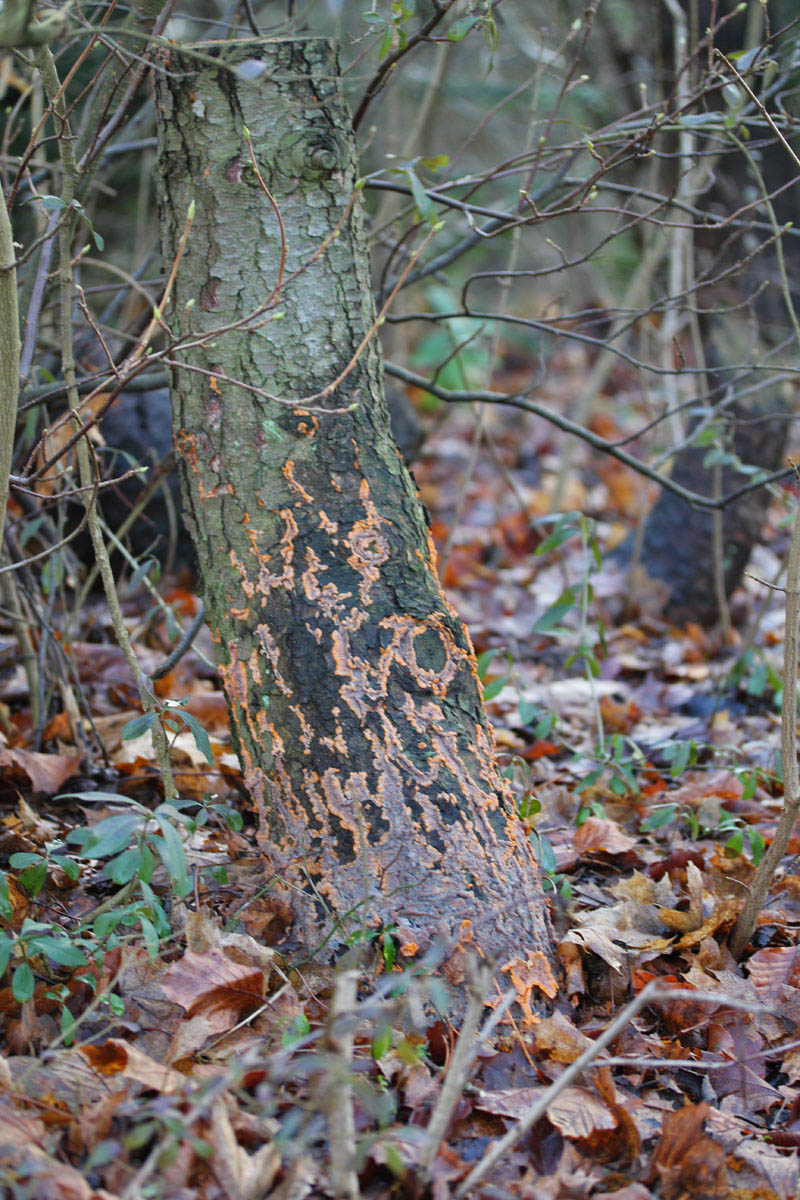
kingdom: Fungi
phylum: Basidiomycota
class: Agaricomycetes
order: Polyporales
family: Meruliaceae
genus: Phlebia
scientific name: Phlebia radiata
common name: stråle-åresvamp
